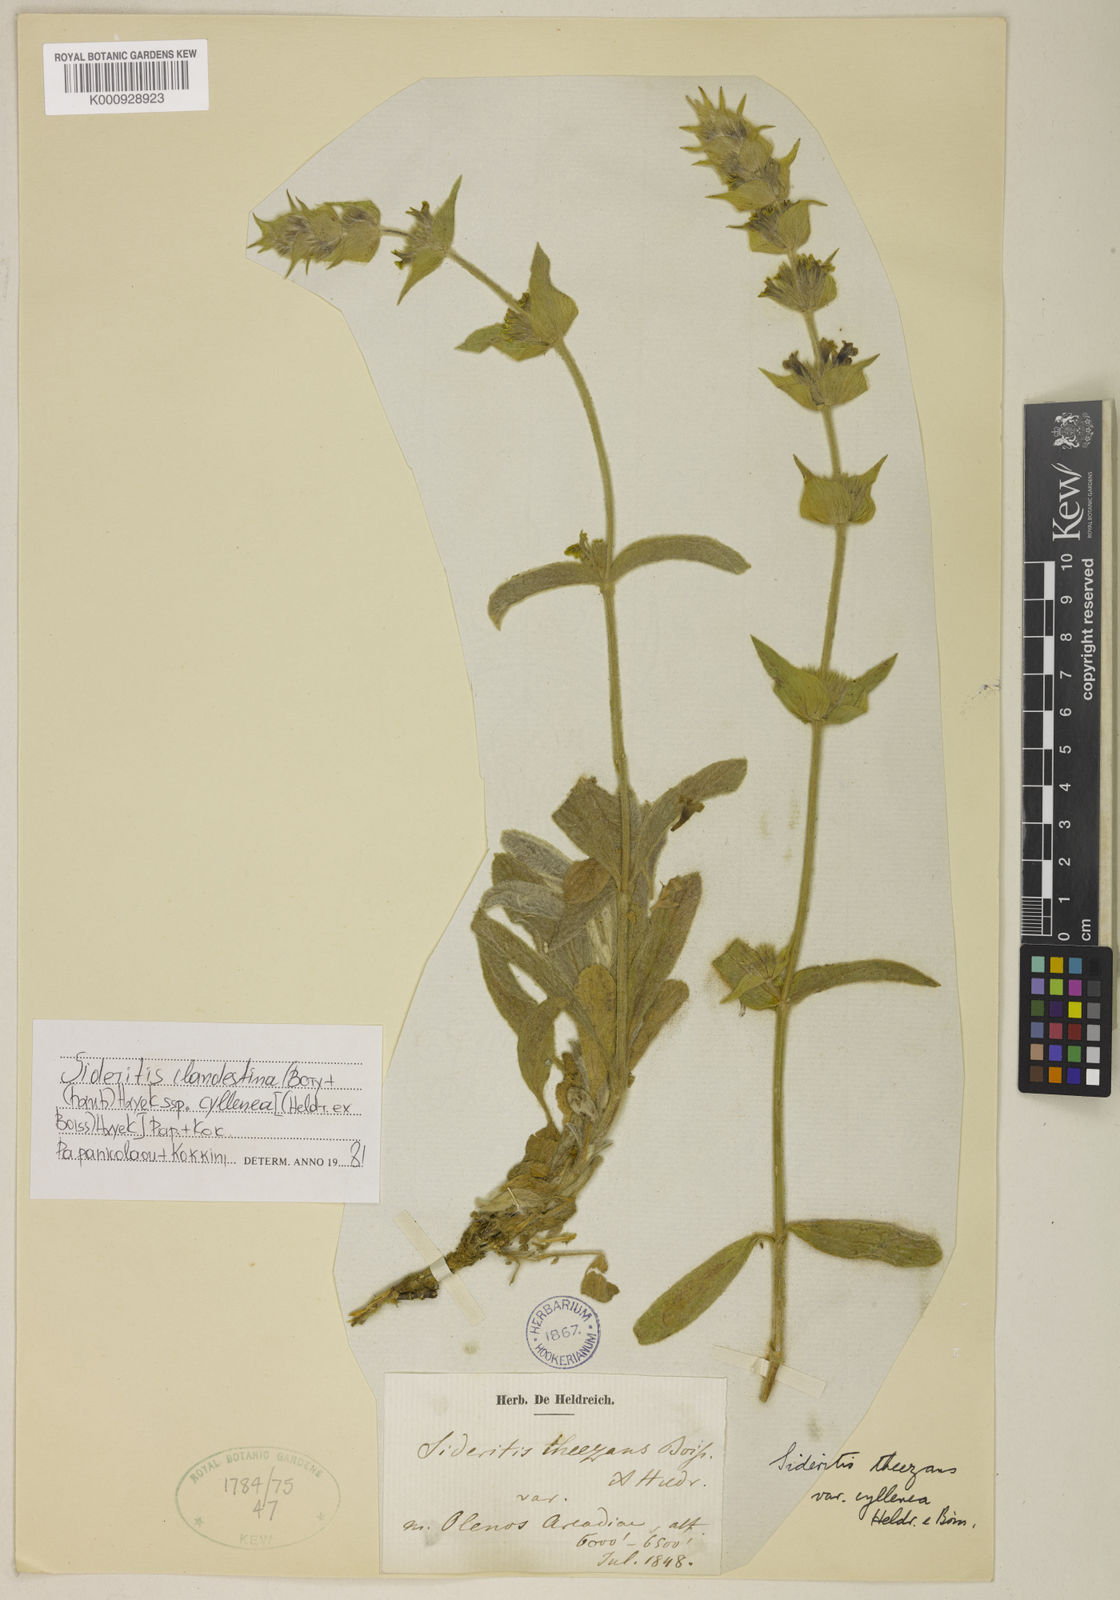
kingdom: Plantae
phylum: Tracheophyta
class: Magnoliopsida
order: Lamiales
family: Lamiaceae
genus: Sideritis
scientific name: Sideritis clandestina
